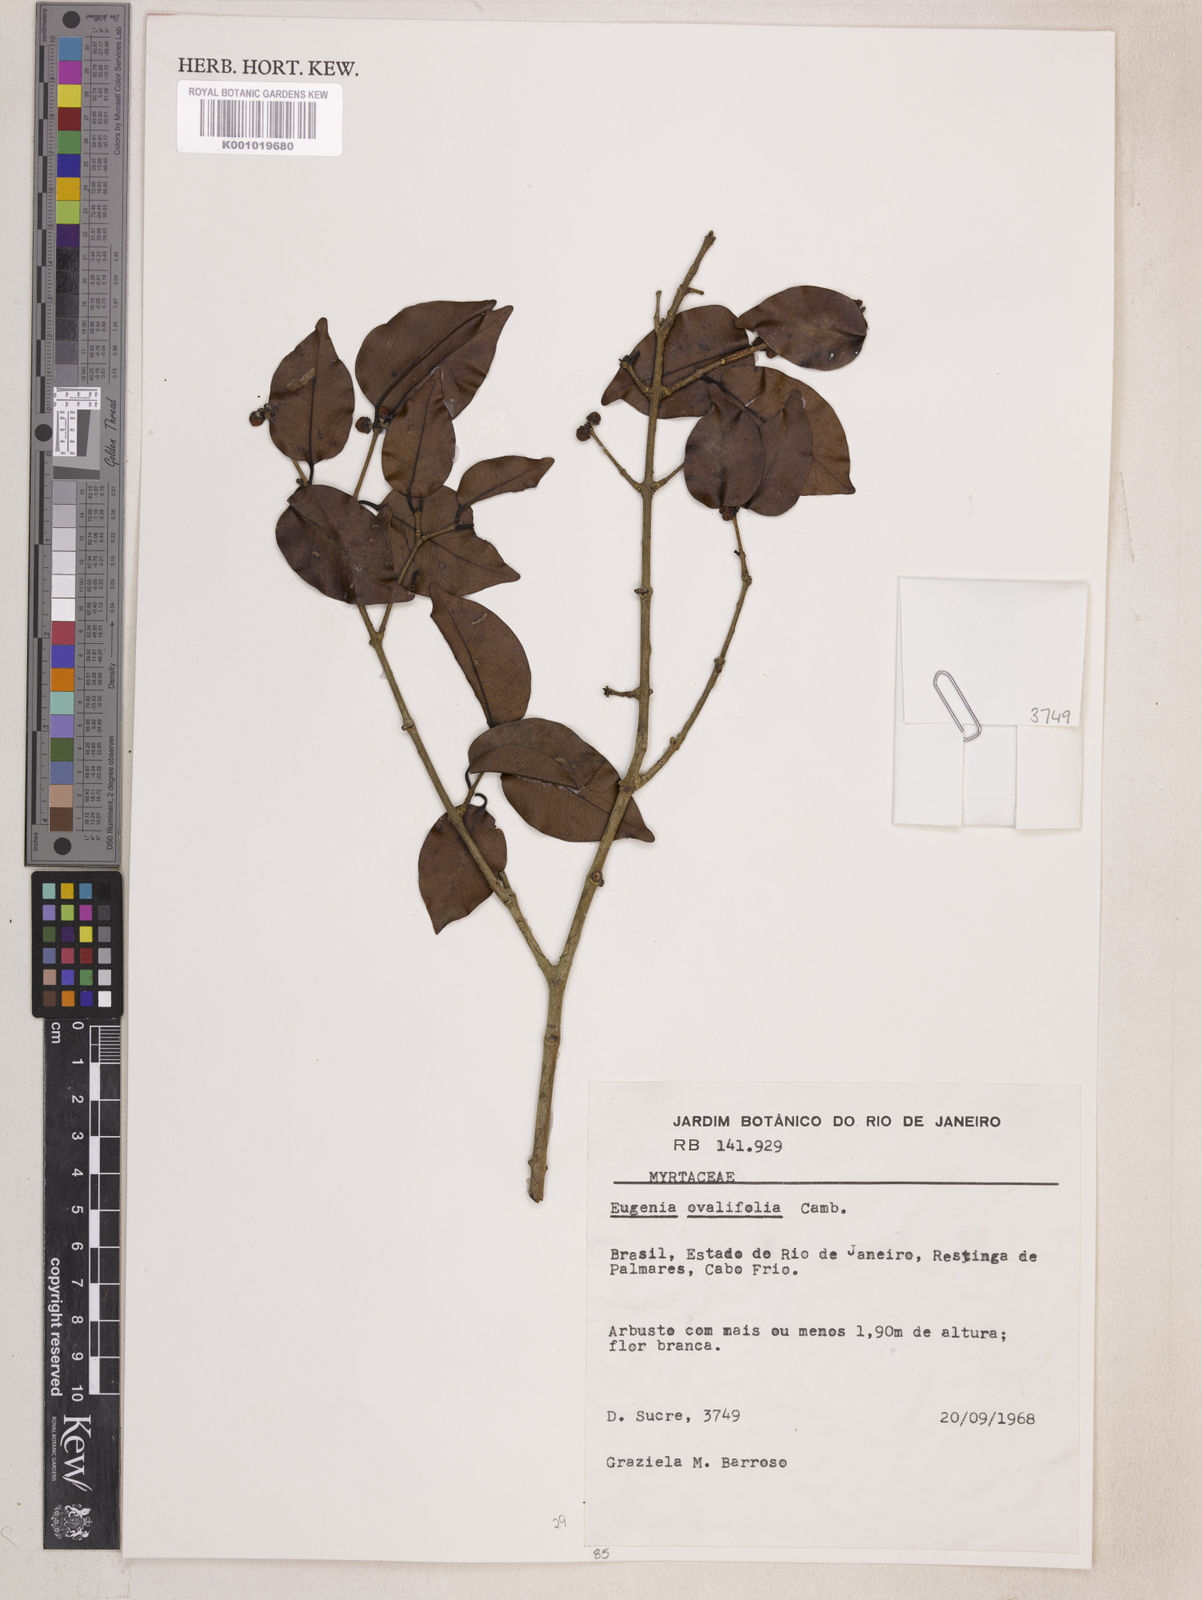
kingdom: Plantae
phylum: Tracheophyta
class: Magnoliopsida
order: Myrtales
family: Myrtaceae
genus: Eugenia
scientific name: Eugenia punicifolia
